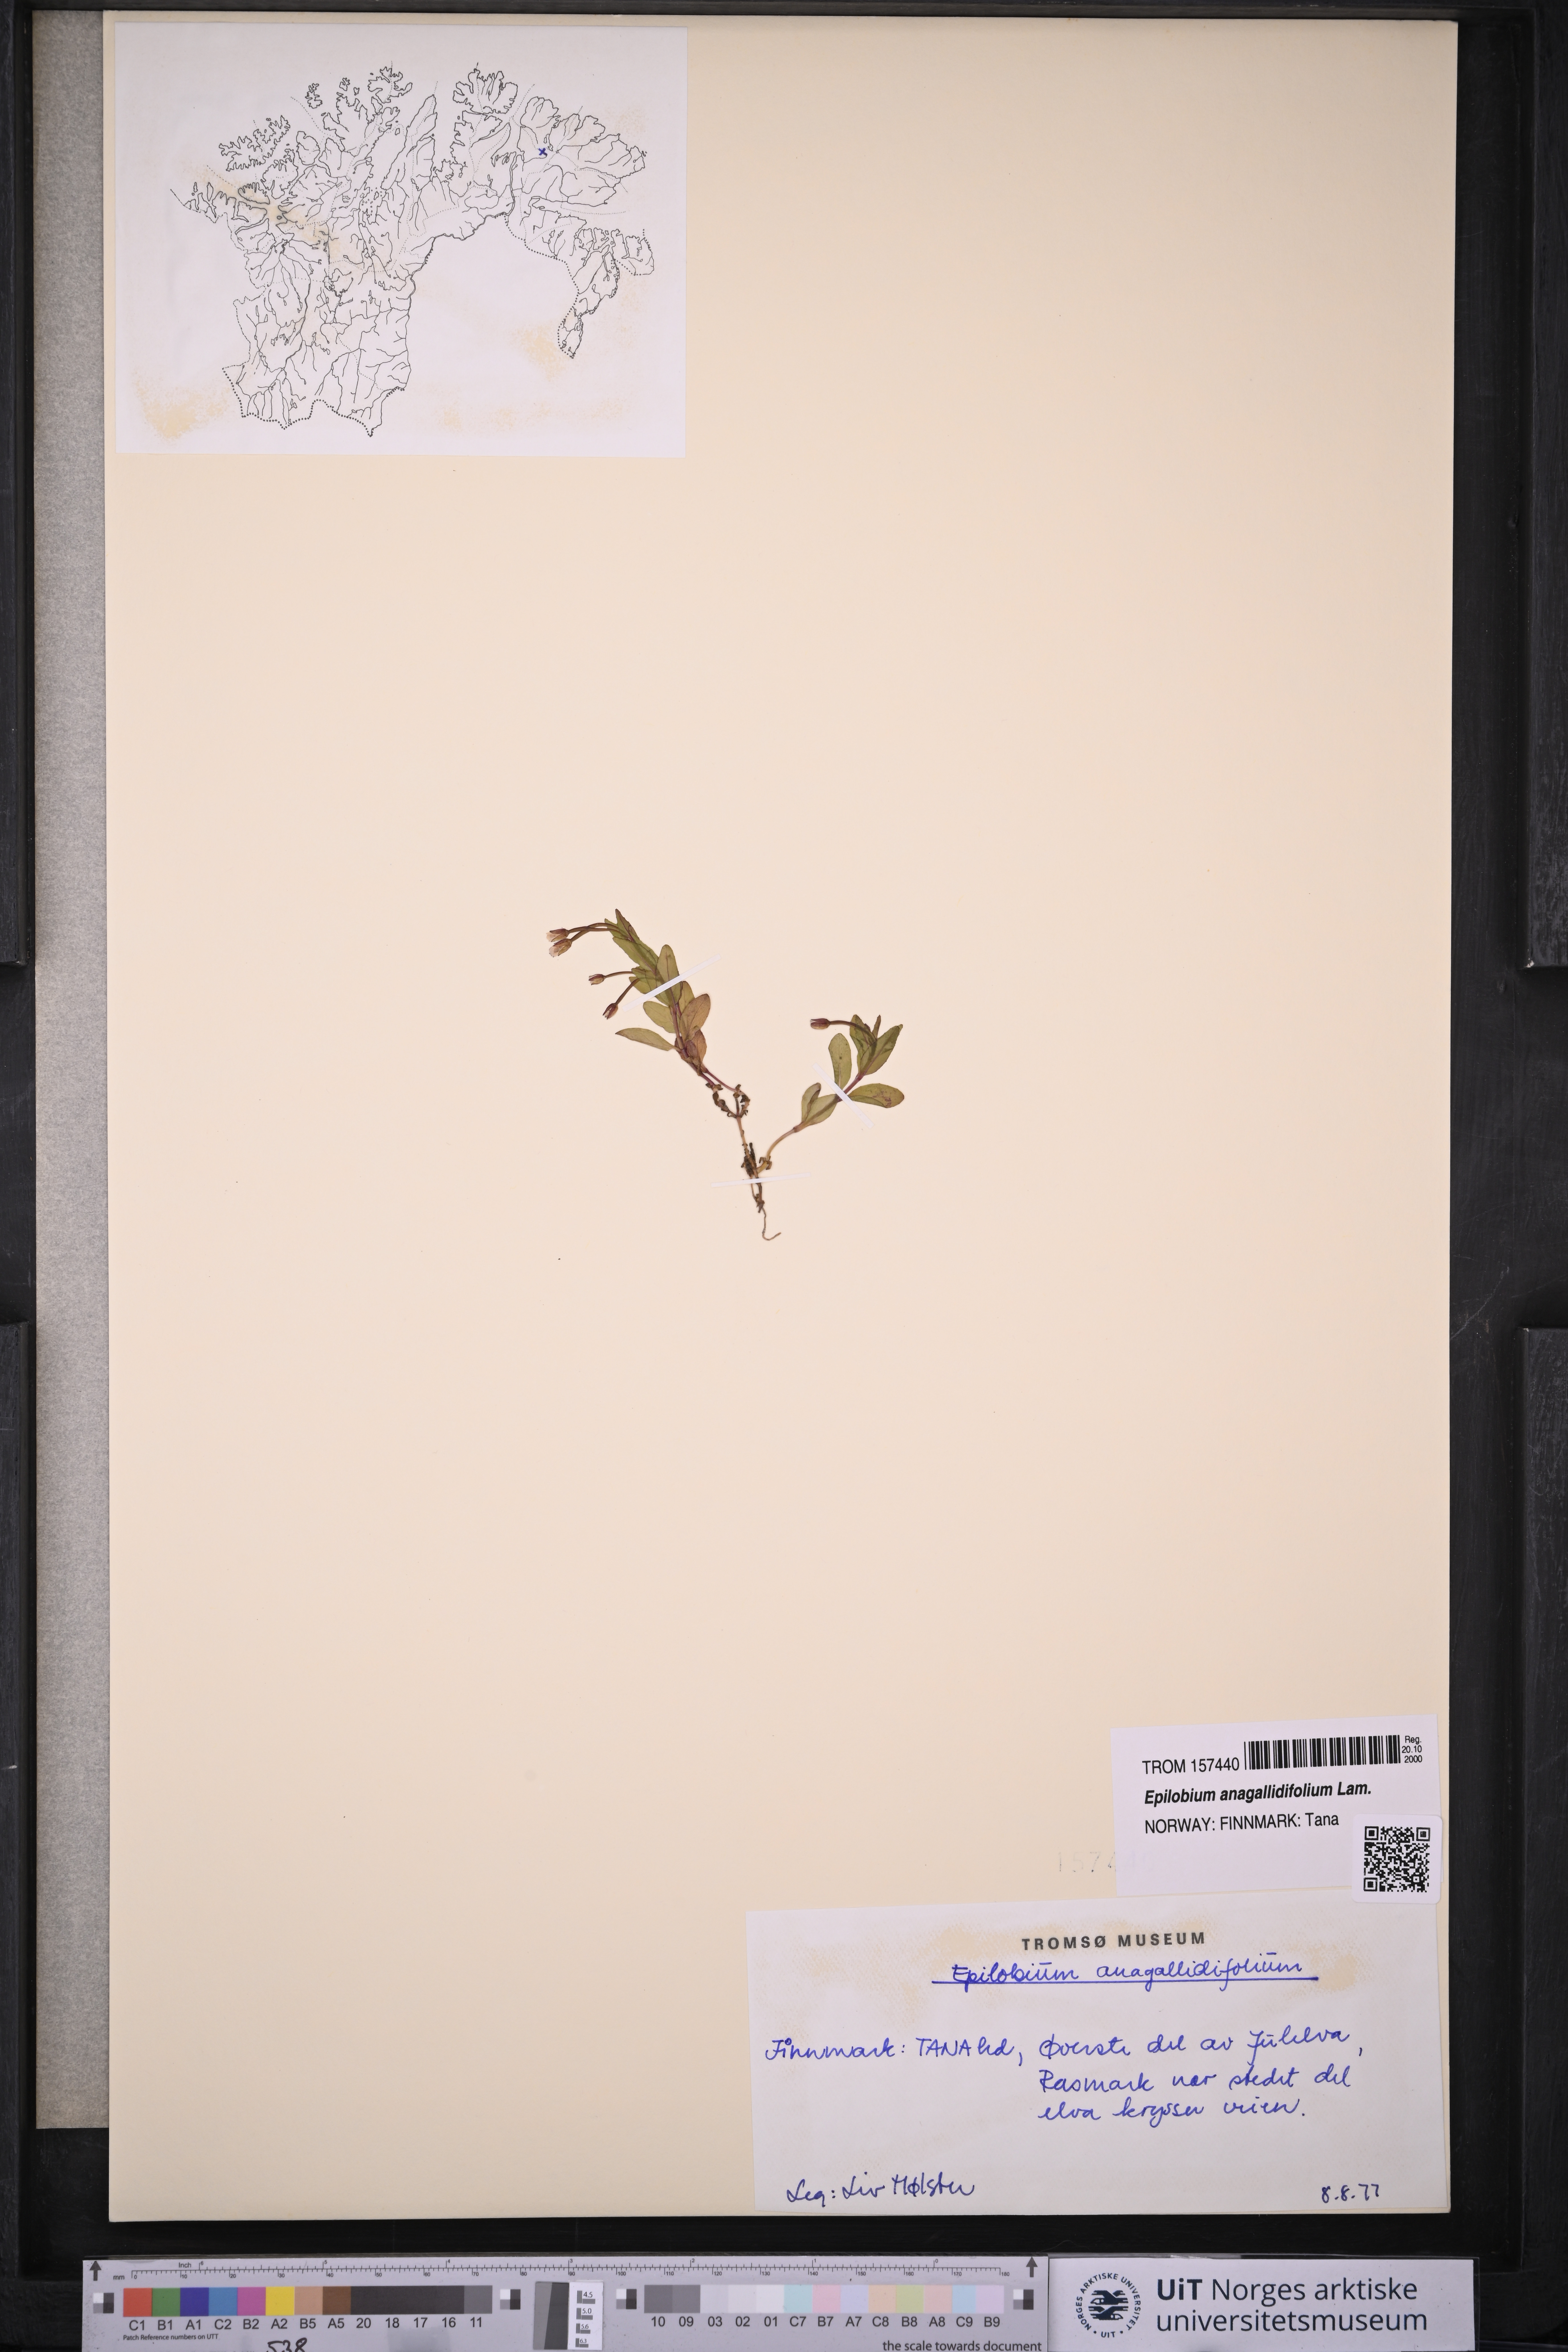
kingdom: Plantae
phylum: Tracheophyta
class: Magnoliopsida
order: Myrtales
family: Onagraceae
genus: Epilobium
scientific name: Epilobium anagallidifolium
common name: Alpine willowherb
